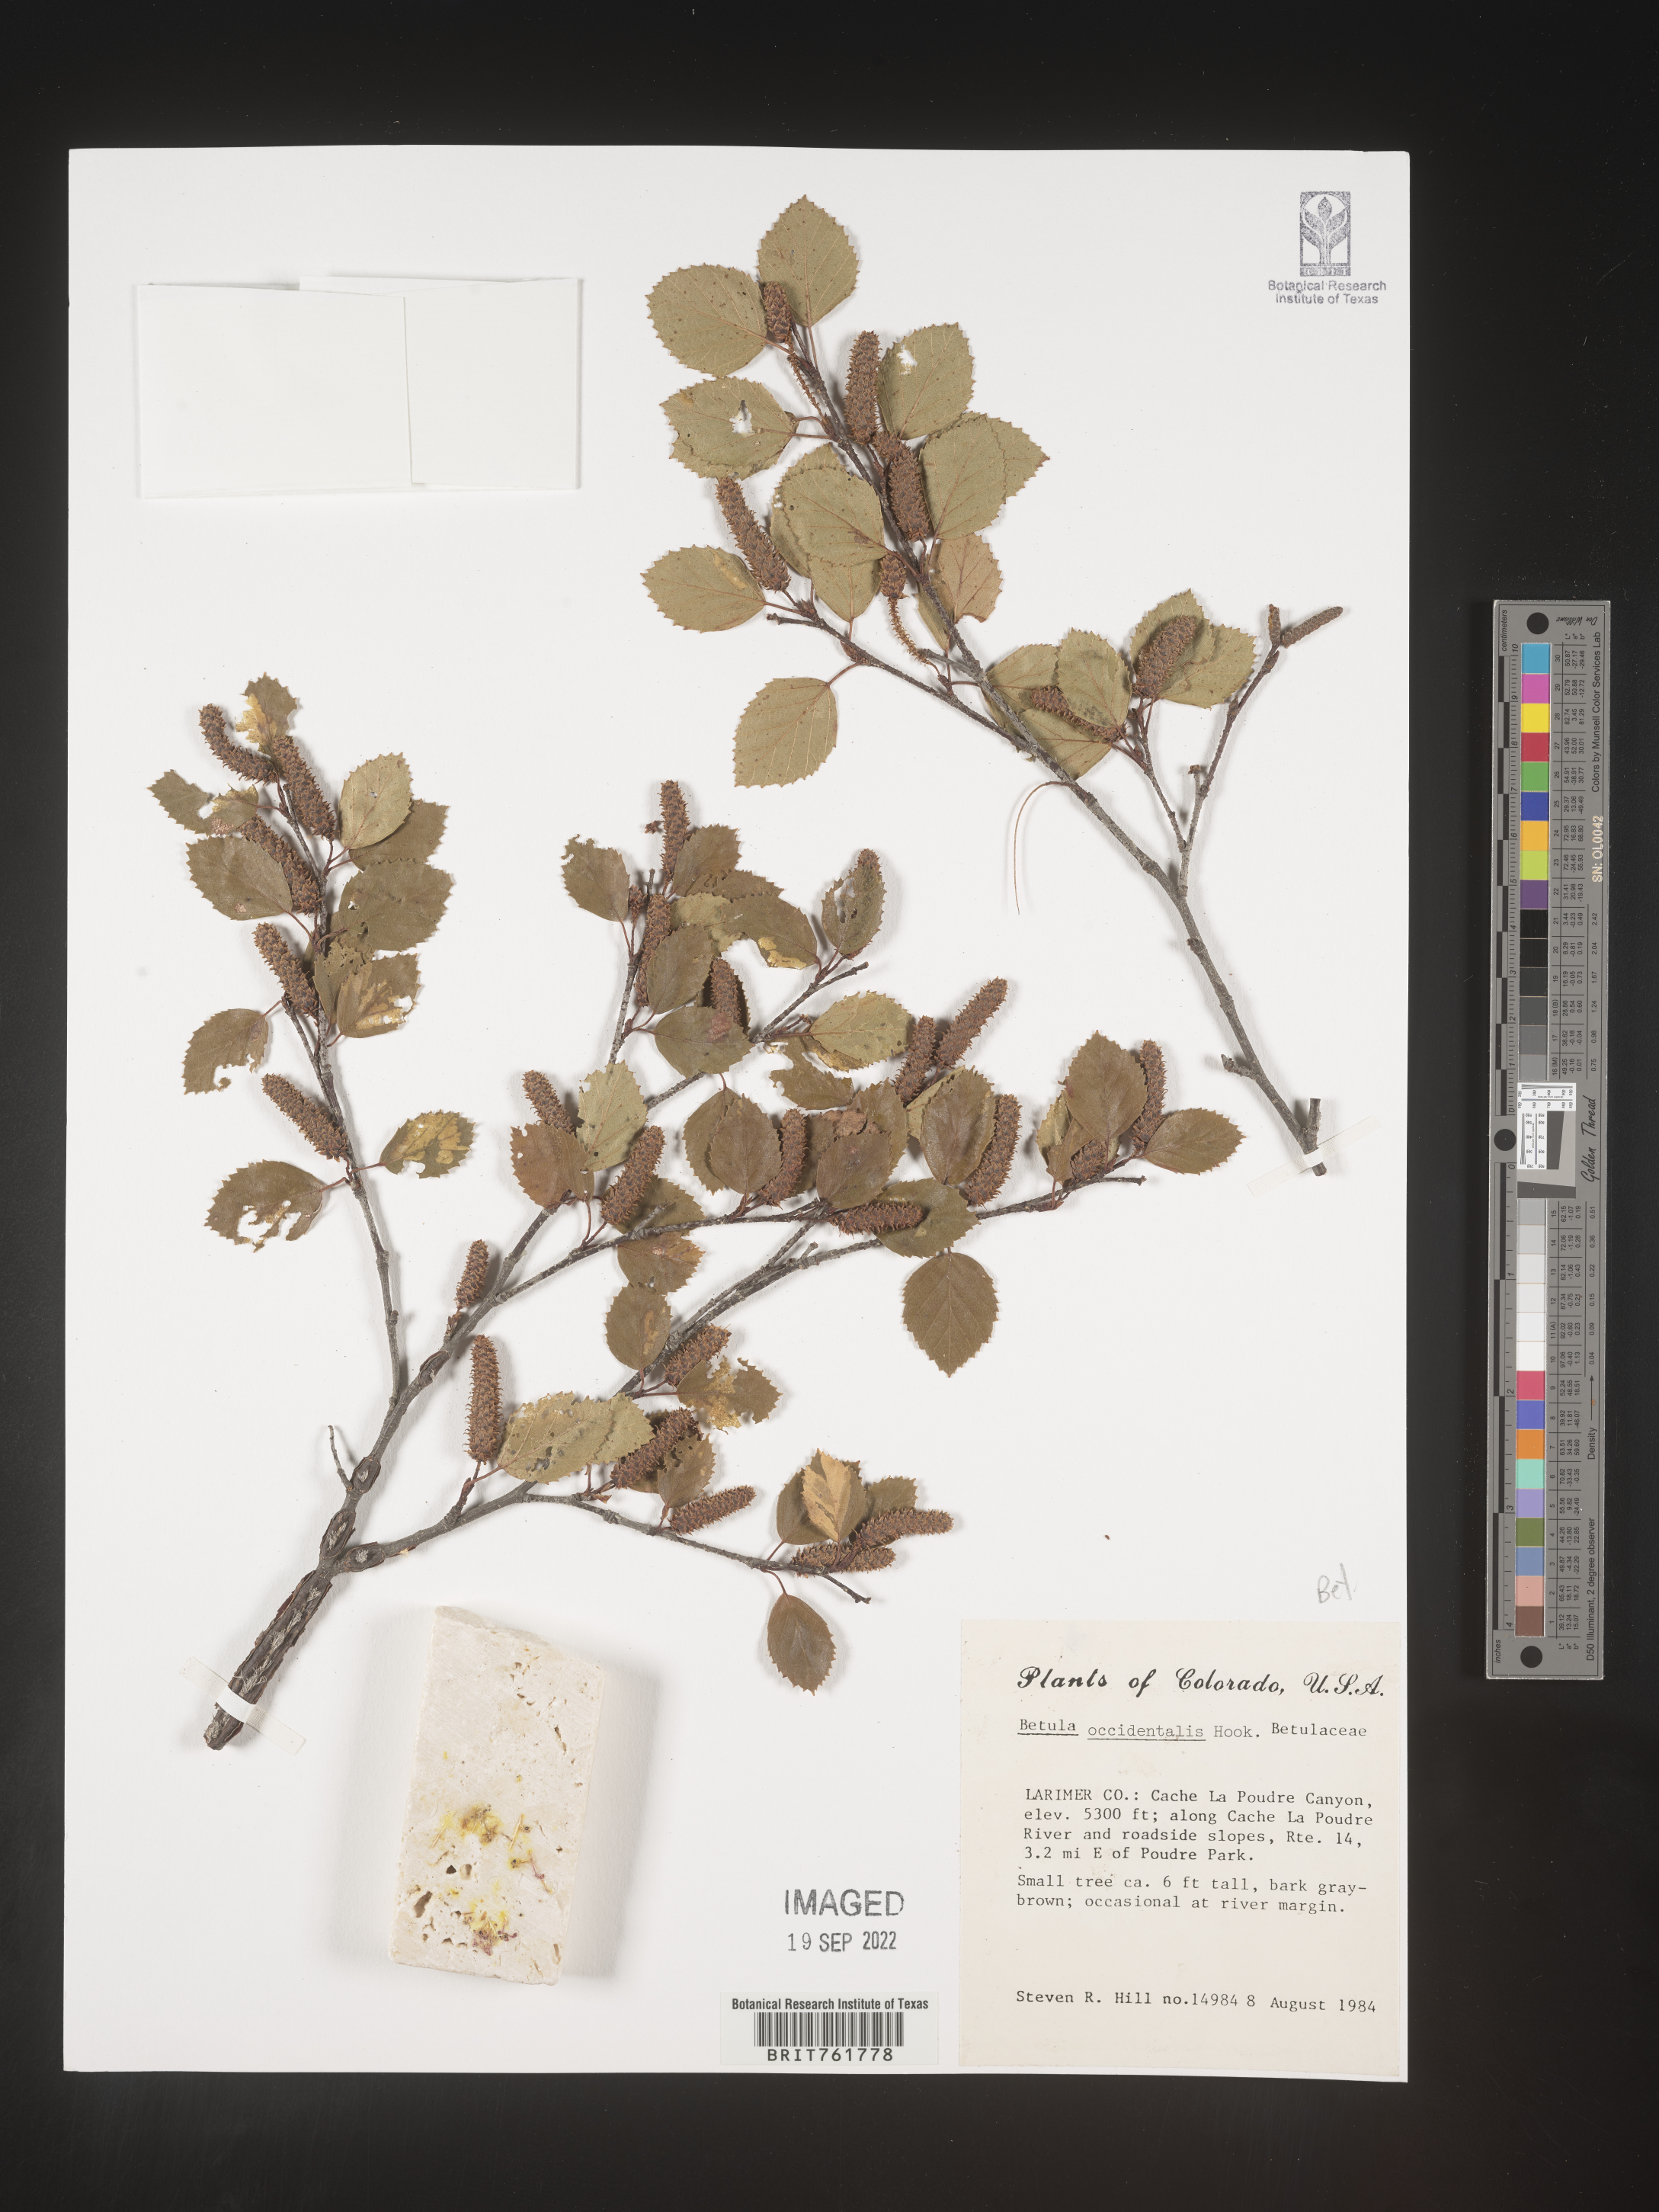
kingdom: Plantae
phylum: Tracheophyta
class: Magnoliopsida
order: Fagales
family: Betulaceae
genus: Betula
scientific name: Betula occidentalis
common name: River birch
